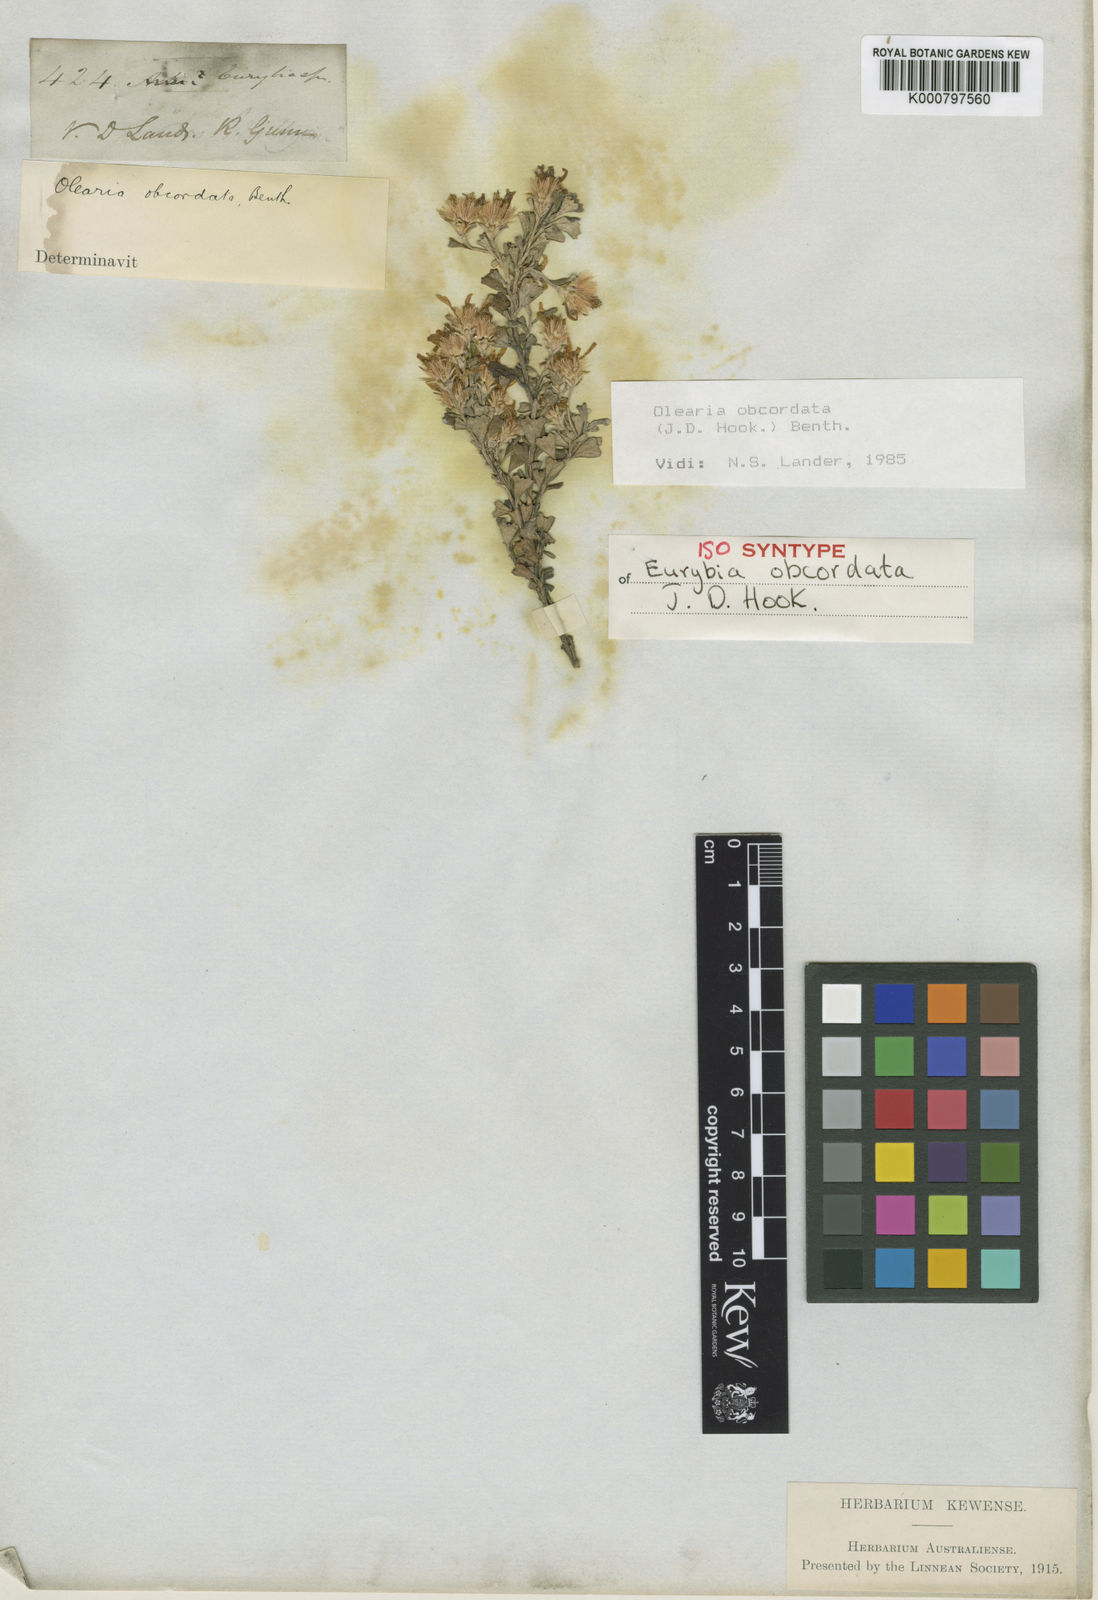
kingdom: Plantae
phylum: Tracheophyta
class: Magnoliopsida
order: Asterales
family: Asteraceae
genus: Olearia
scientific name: Olearia obcordata
